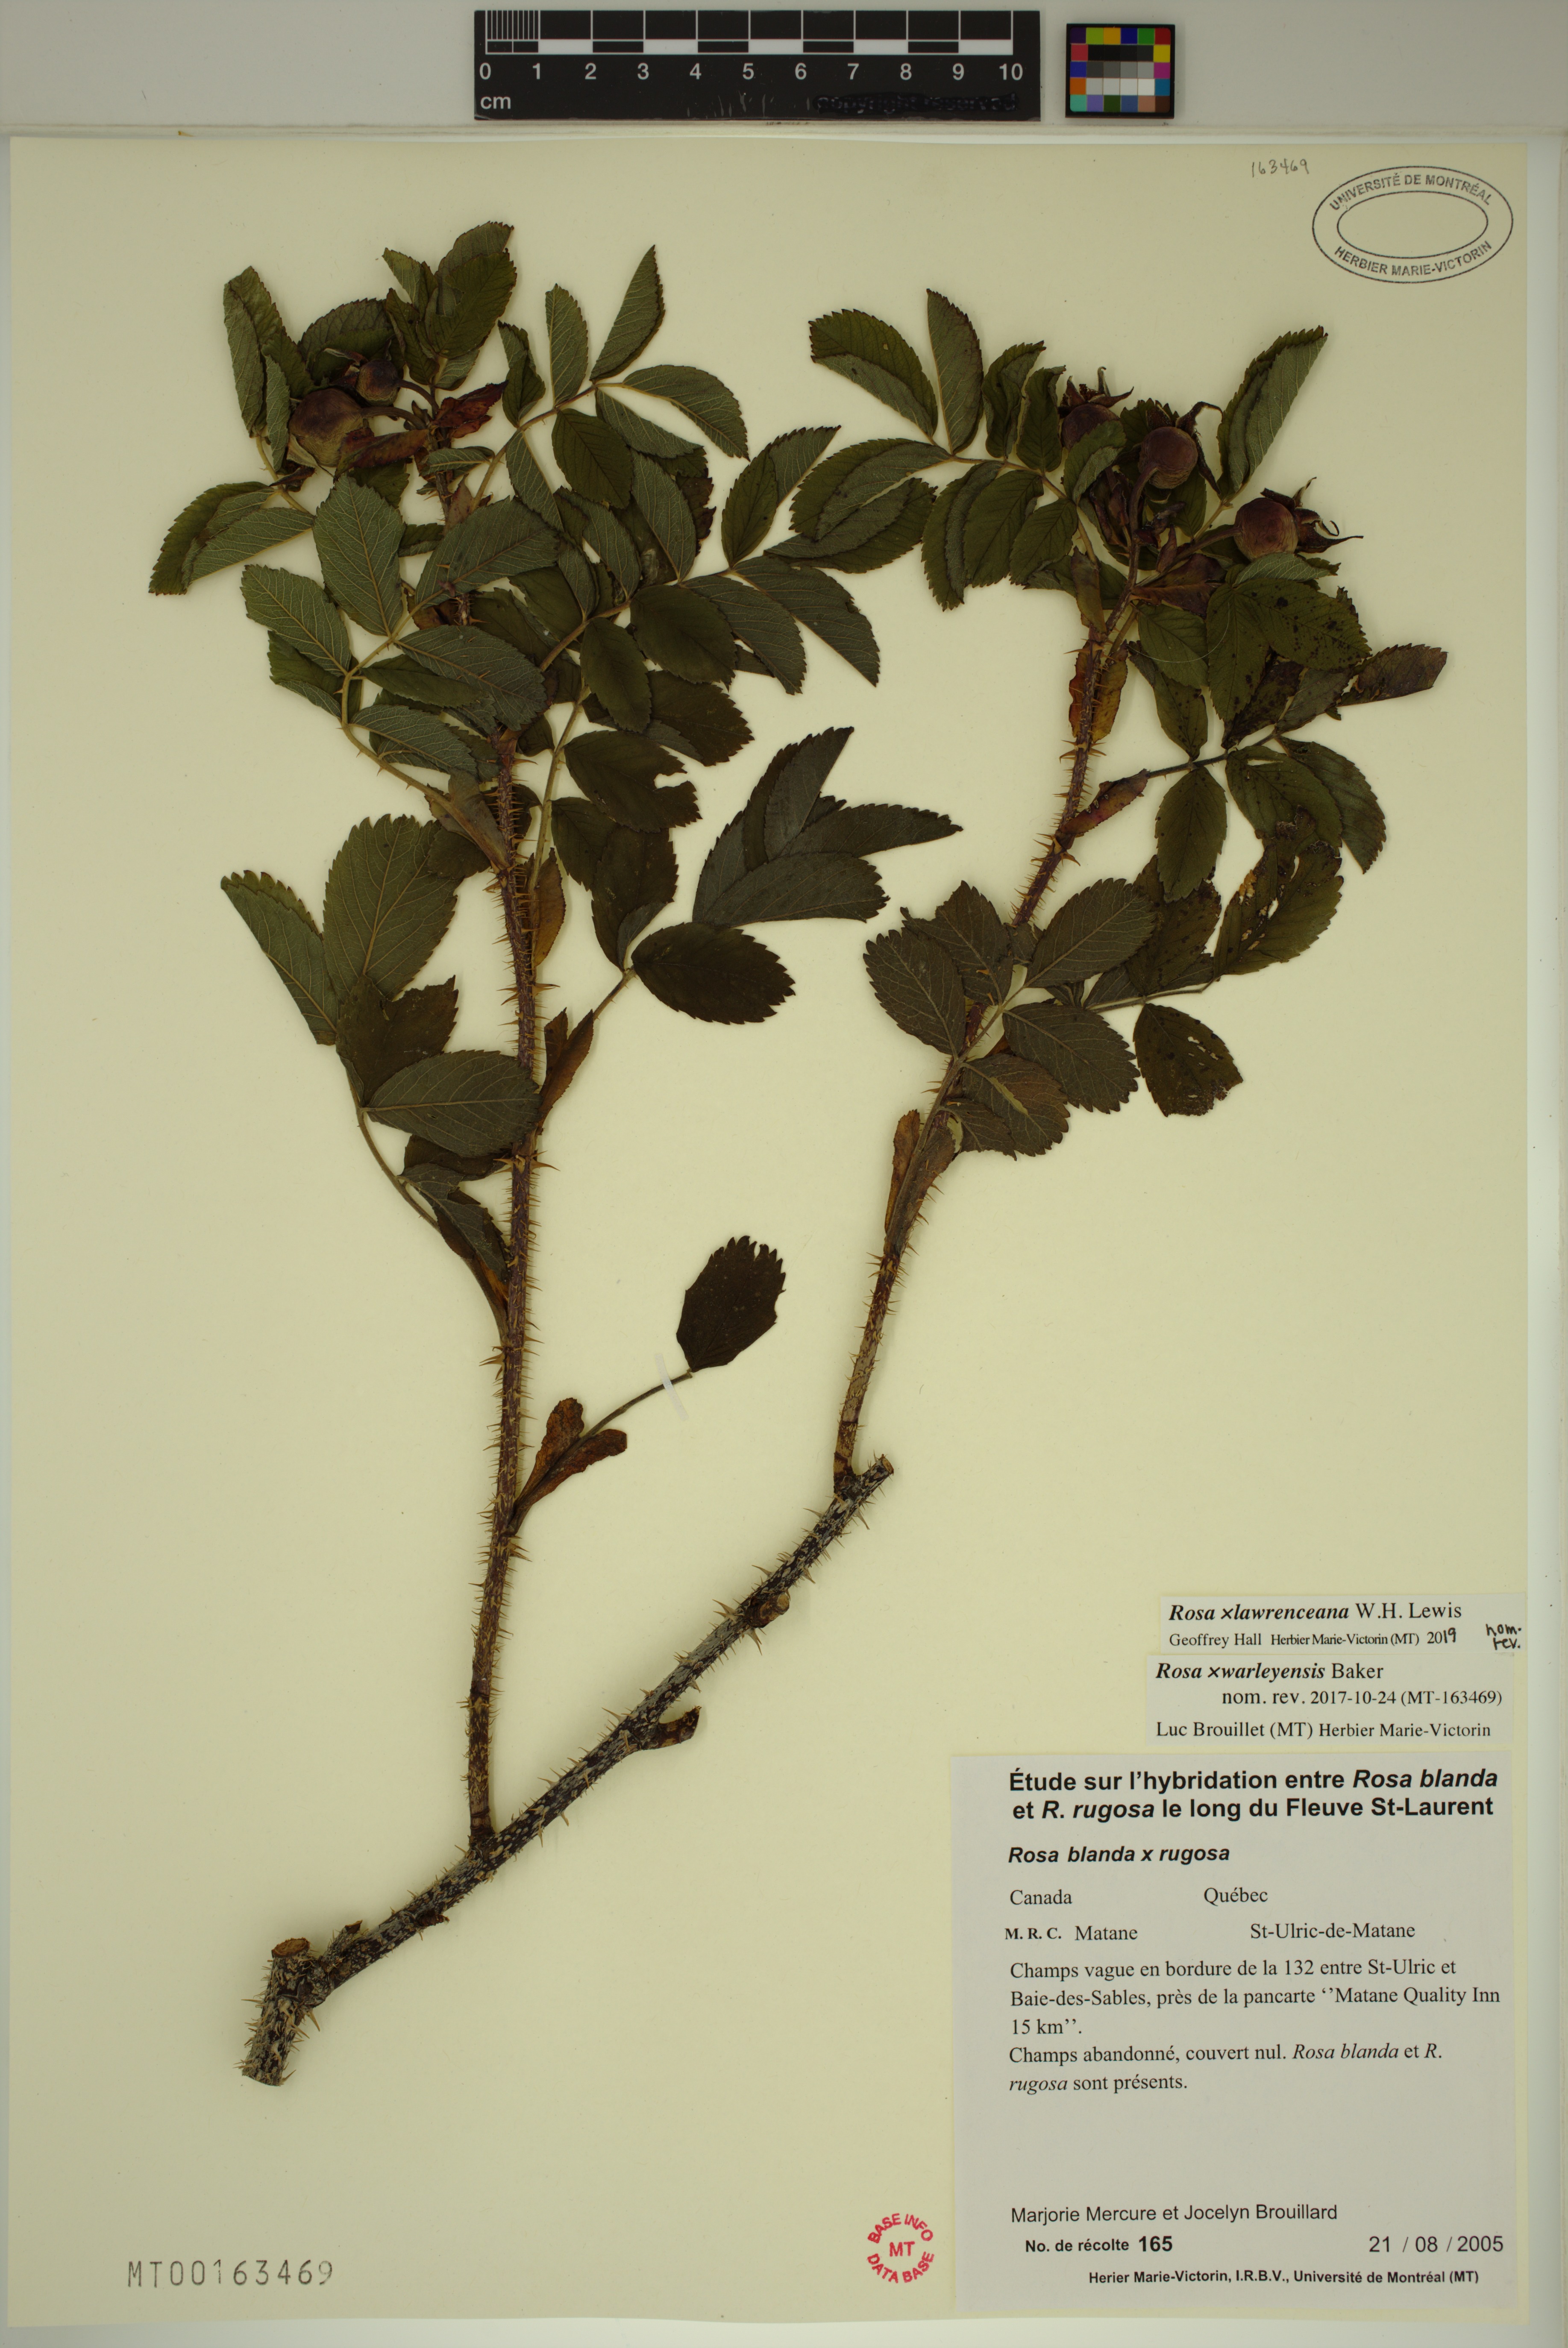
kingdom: Plantae
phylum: Tracheophyta
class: Magnoliopsida
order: Rosales
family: Rosaceae
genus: Rosa
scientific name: Rosa chinensis
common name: China rose
